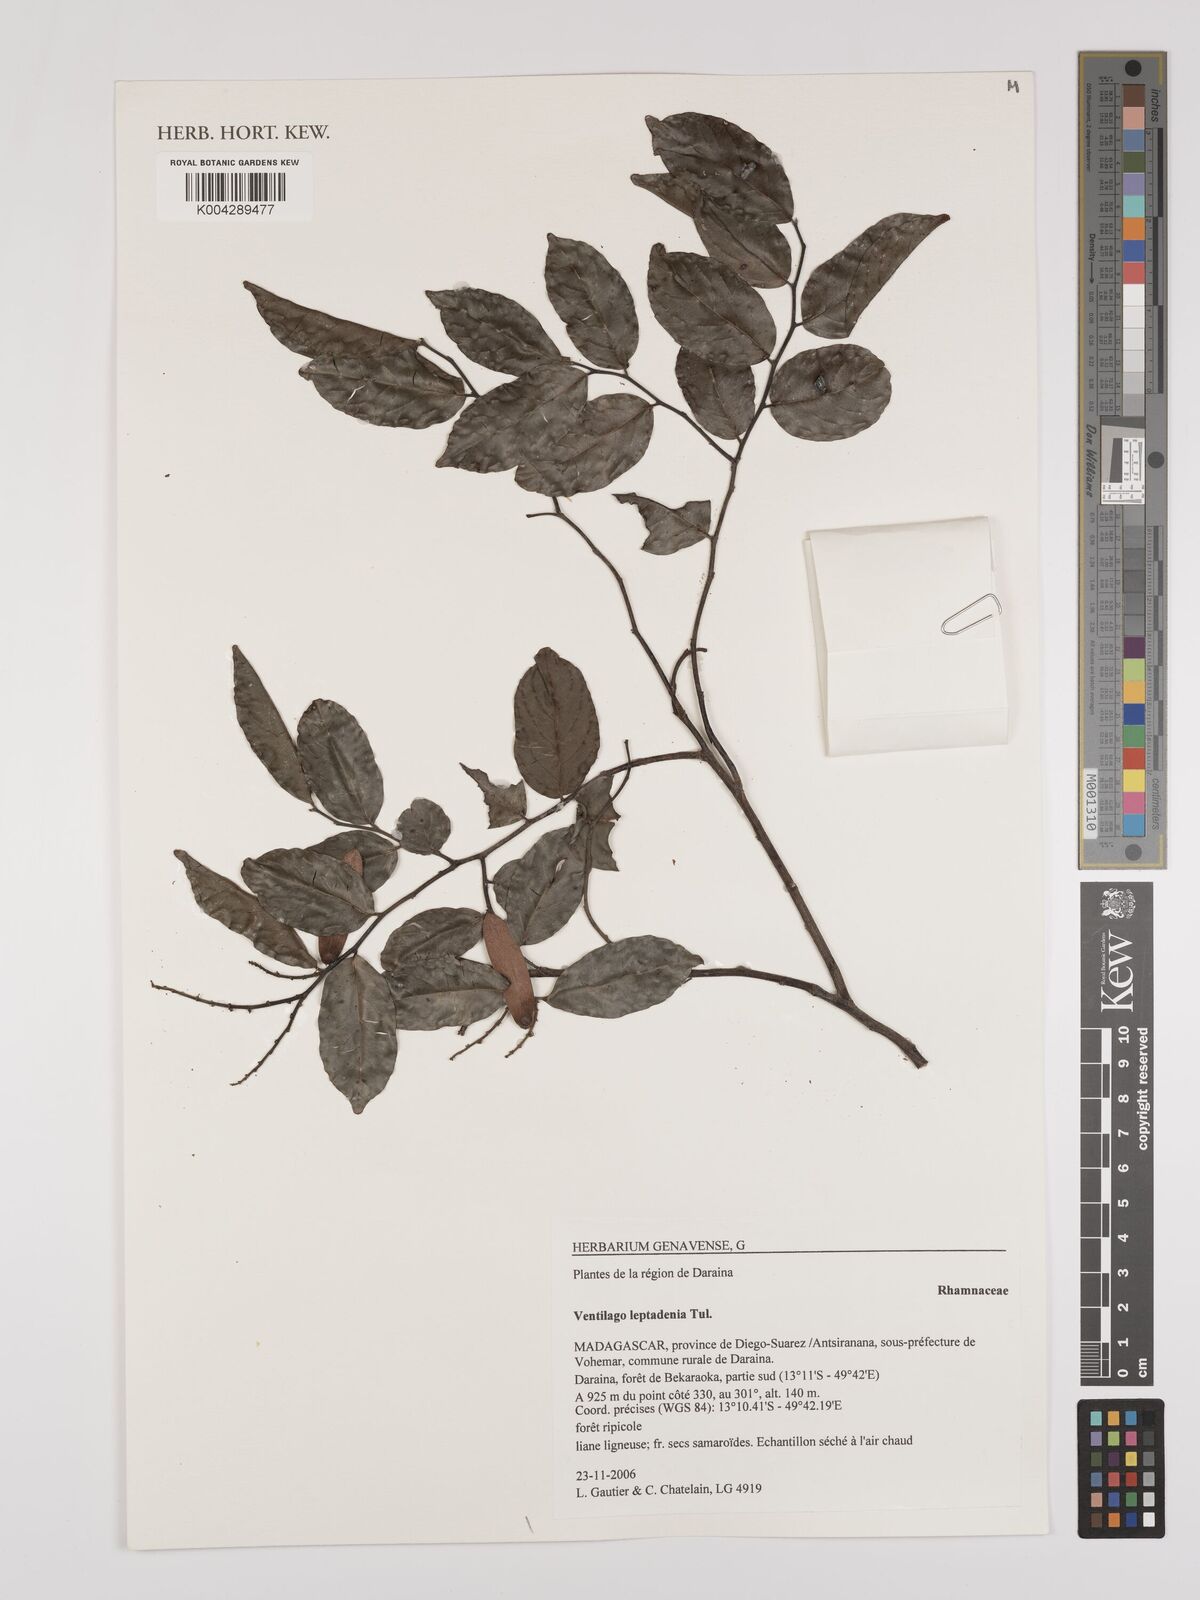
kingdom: Plantae
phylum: Tracheophyta
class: Magnoliopsida
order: Rosales
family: Rhamnaceae
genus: Ventilago
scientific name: Ventilago leptadenia
